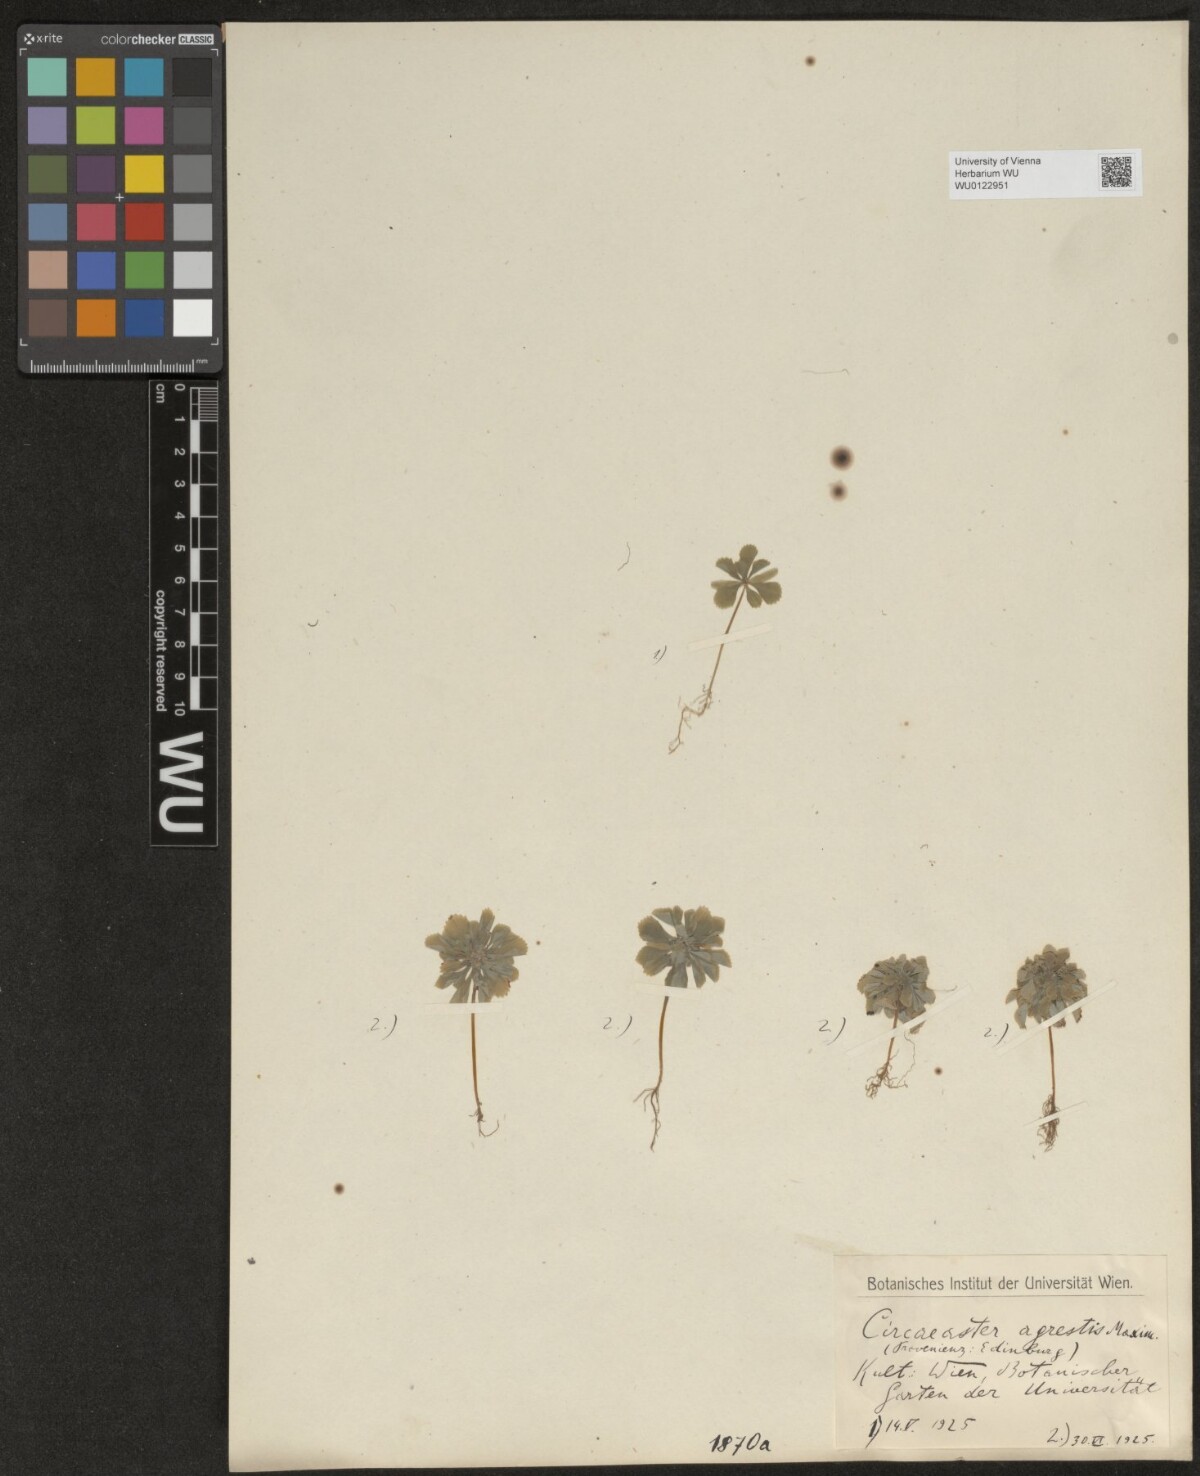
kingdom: Plantae
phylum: Tracheophyta
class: Magnoliopsida
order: Ranunculales
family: Circaeasteraceae
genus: Circaeaster
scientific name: Circaeaster agrestis
